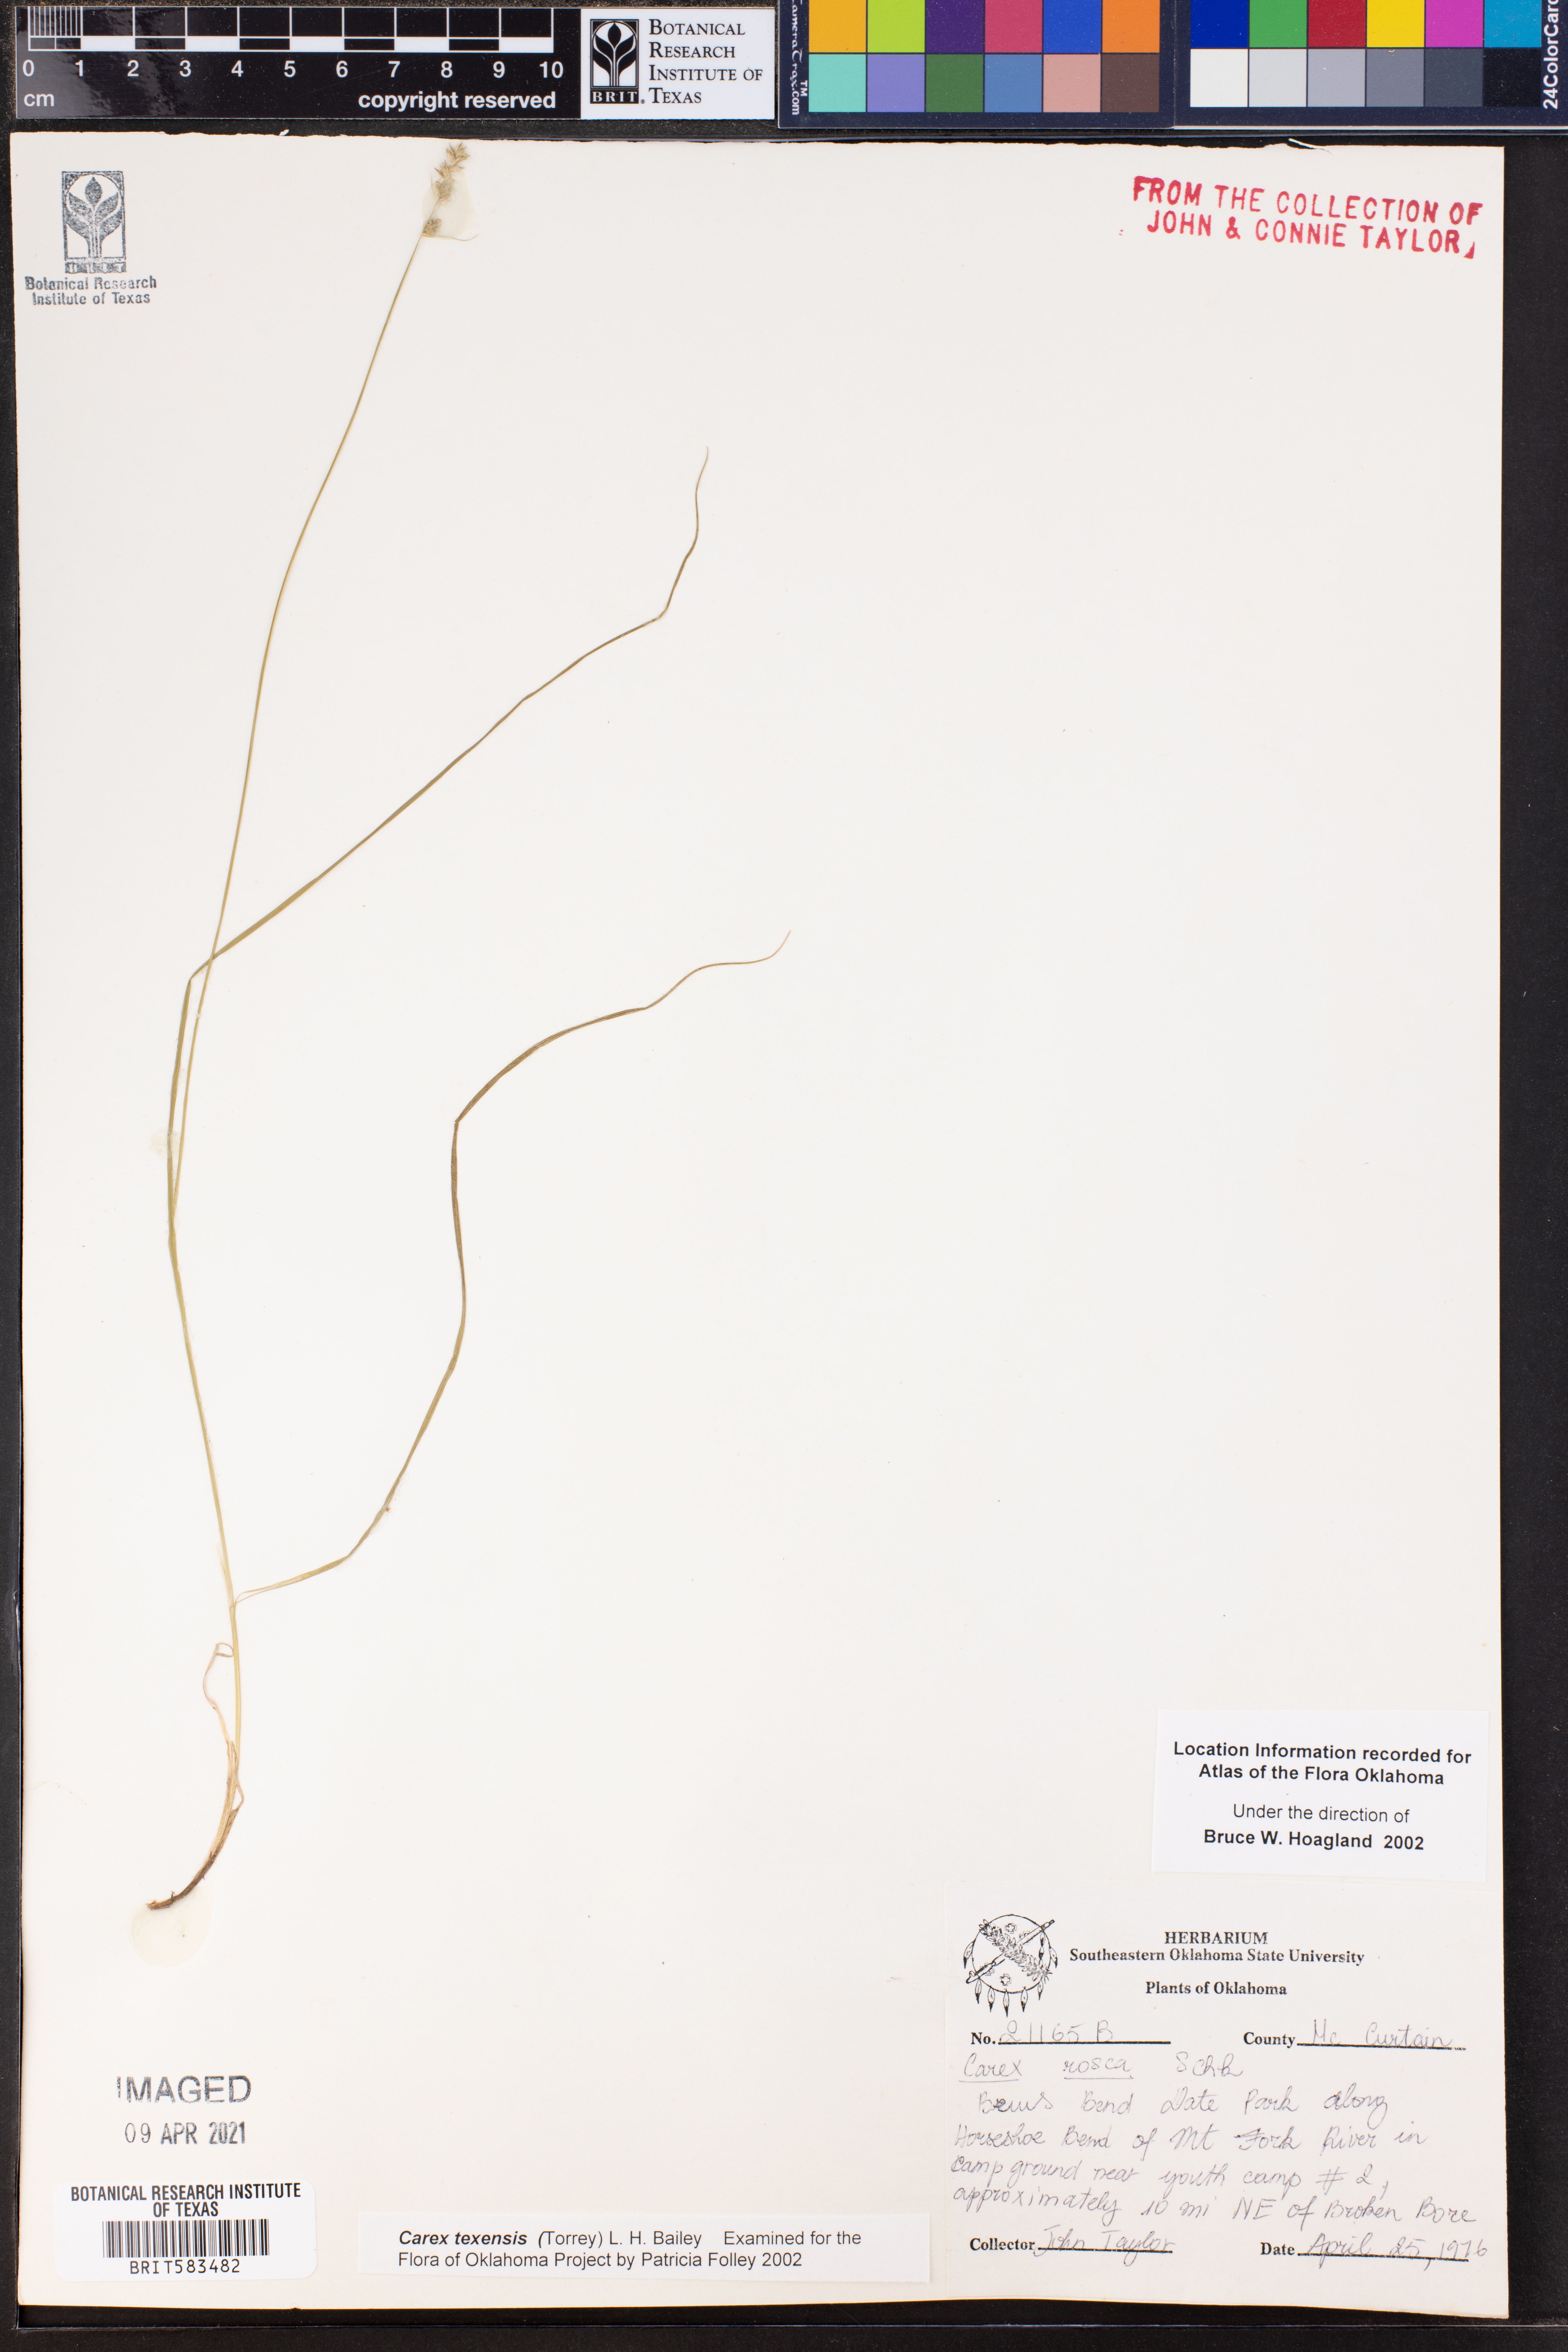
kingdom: Plantae
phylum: Tracheophyta
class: Liliopsida
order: Poales
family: Cyperaceae
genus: Carex
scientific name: Carex texensis
